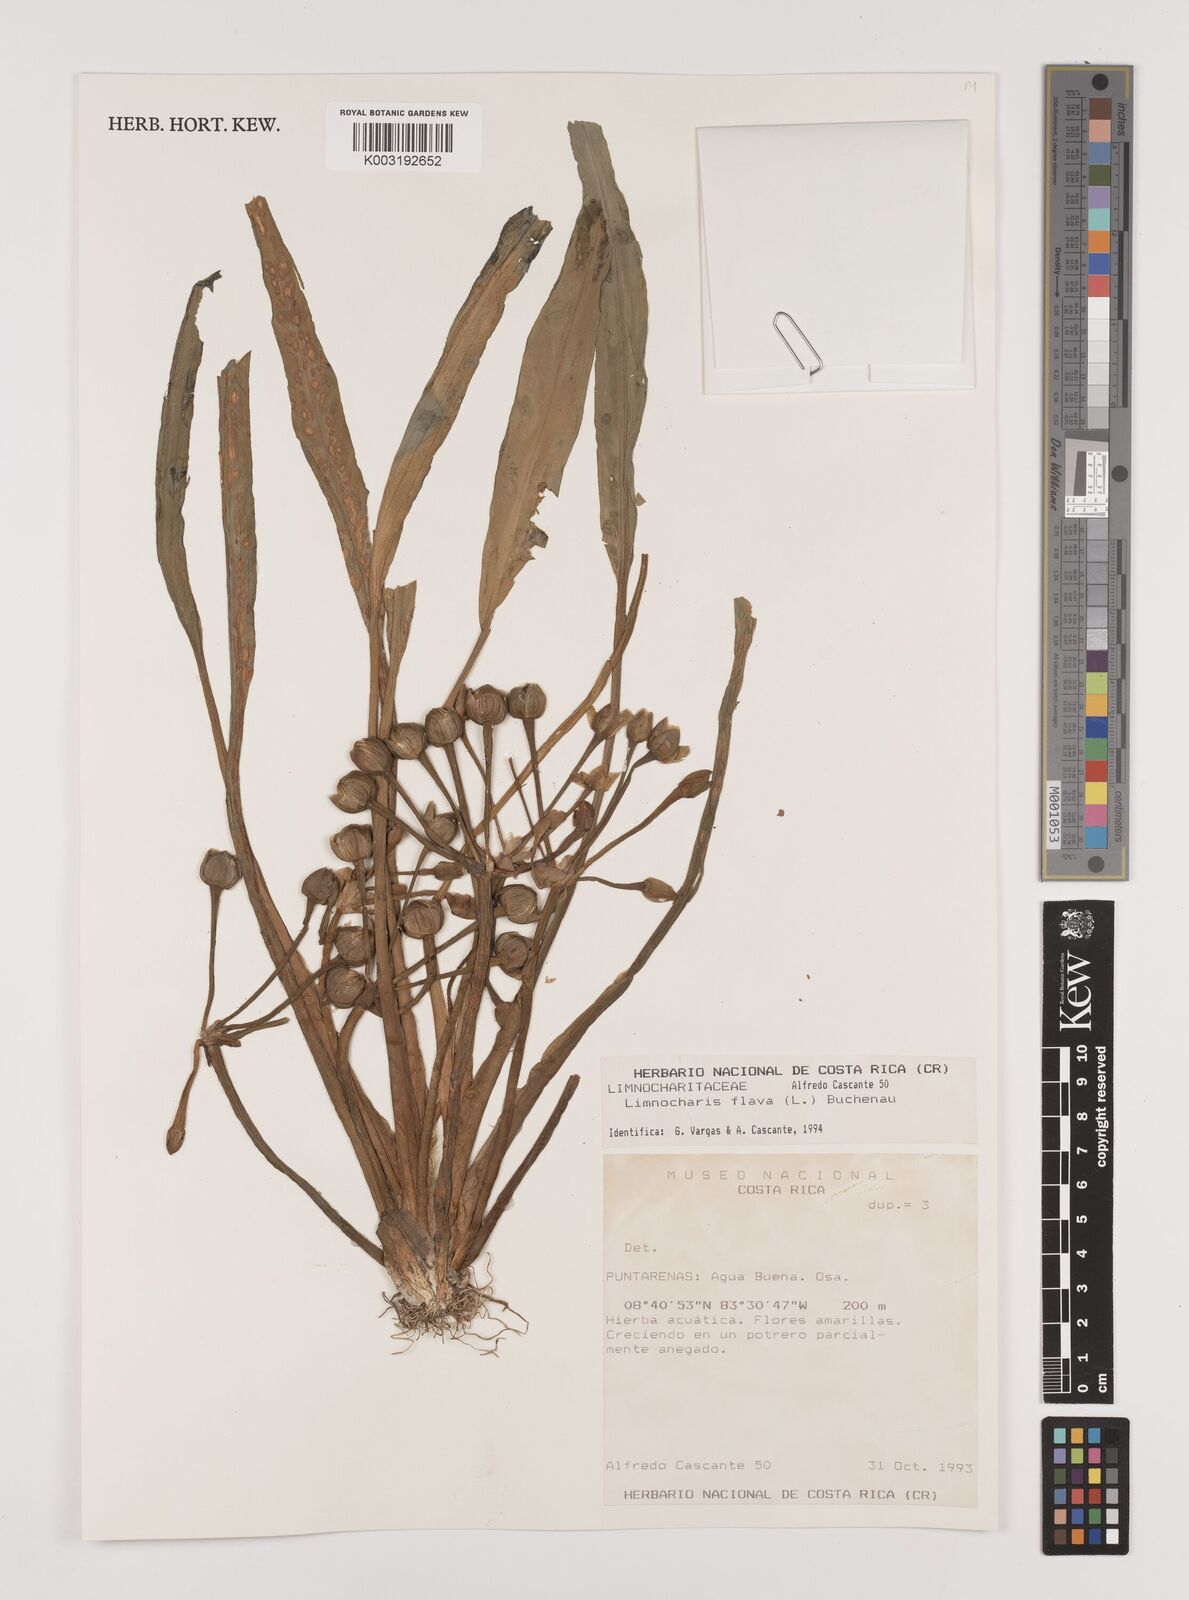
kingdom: Plantae
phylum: Tracheophyta
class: Liliopsida
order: Alismatales
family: Alismataceae
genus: Limnocharis
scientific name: Limnocharis flava
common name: Sawah-flower-rush
